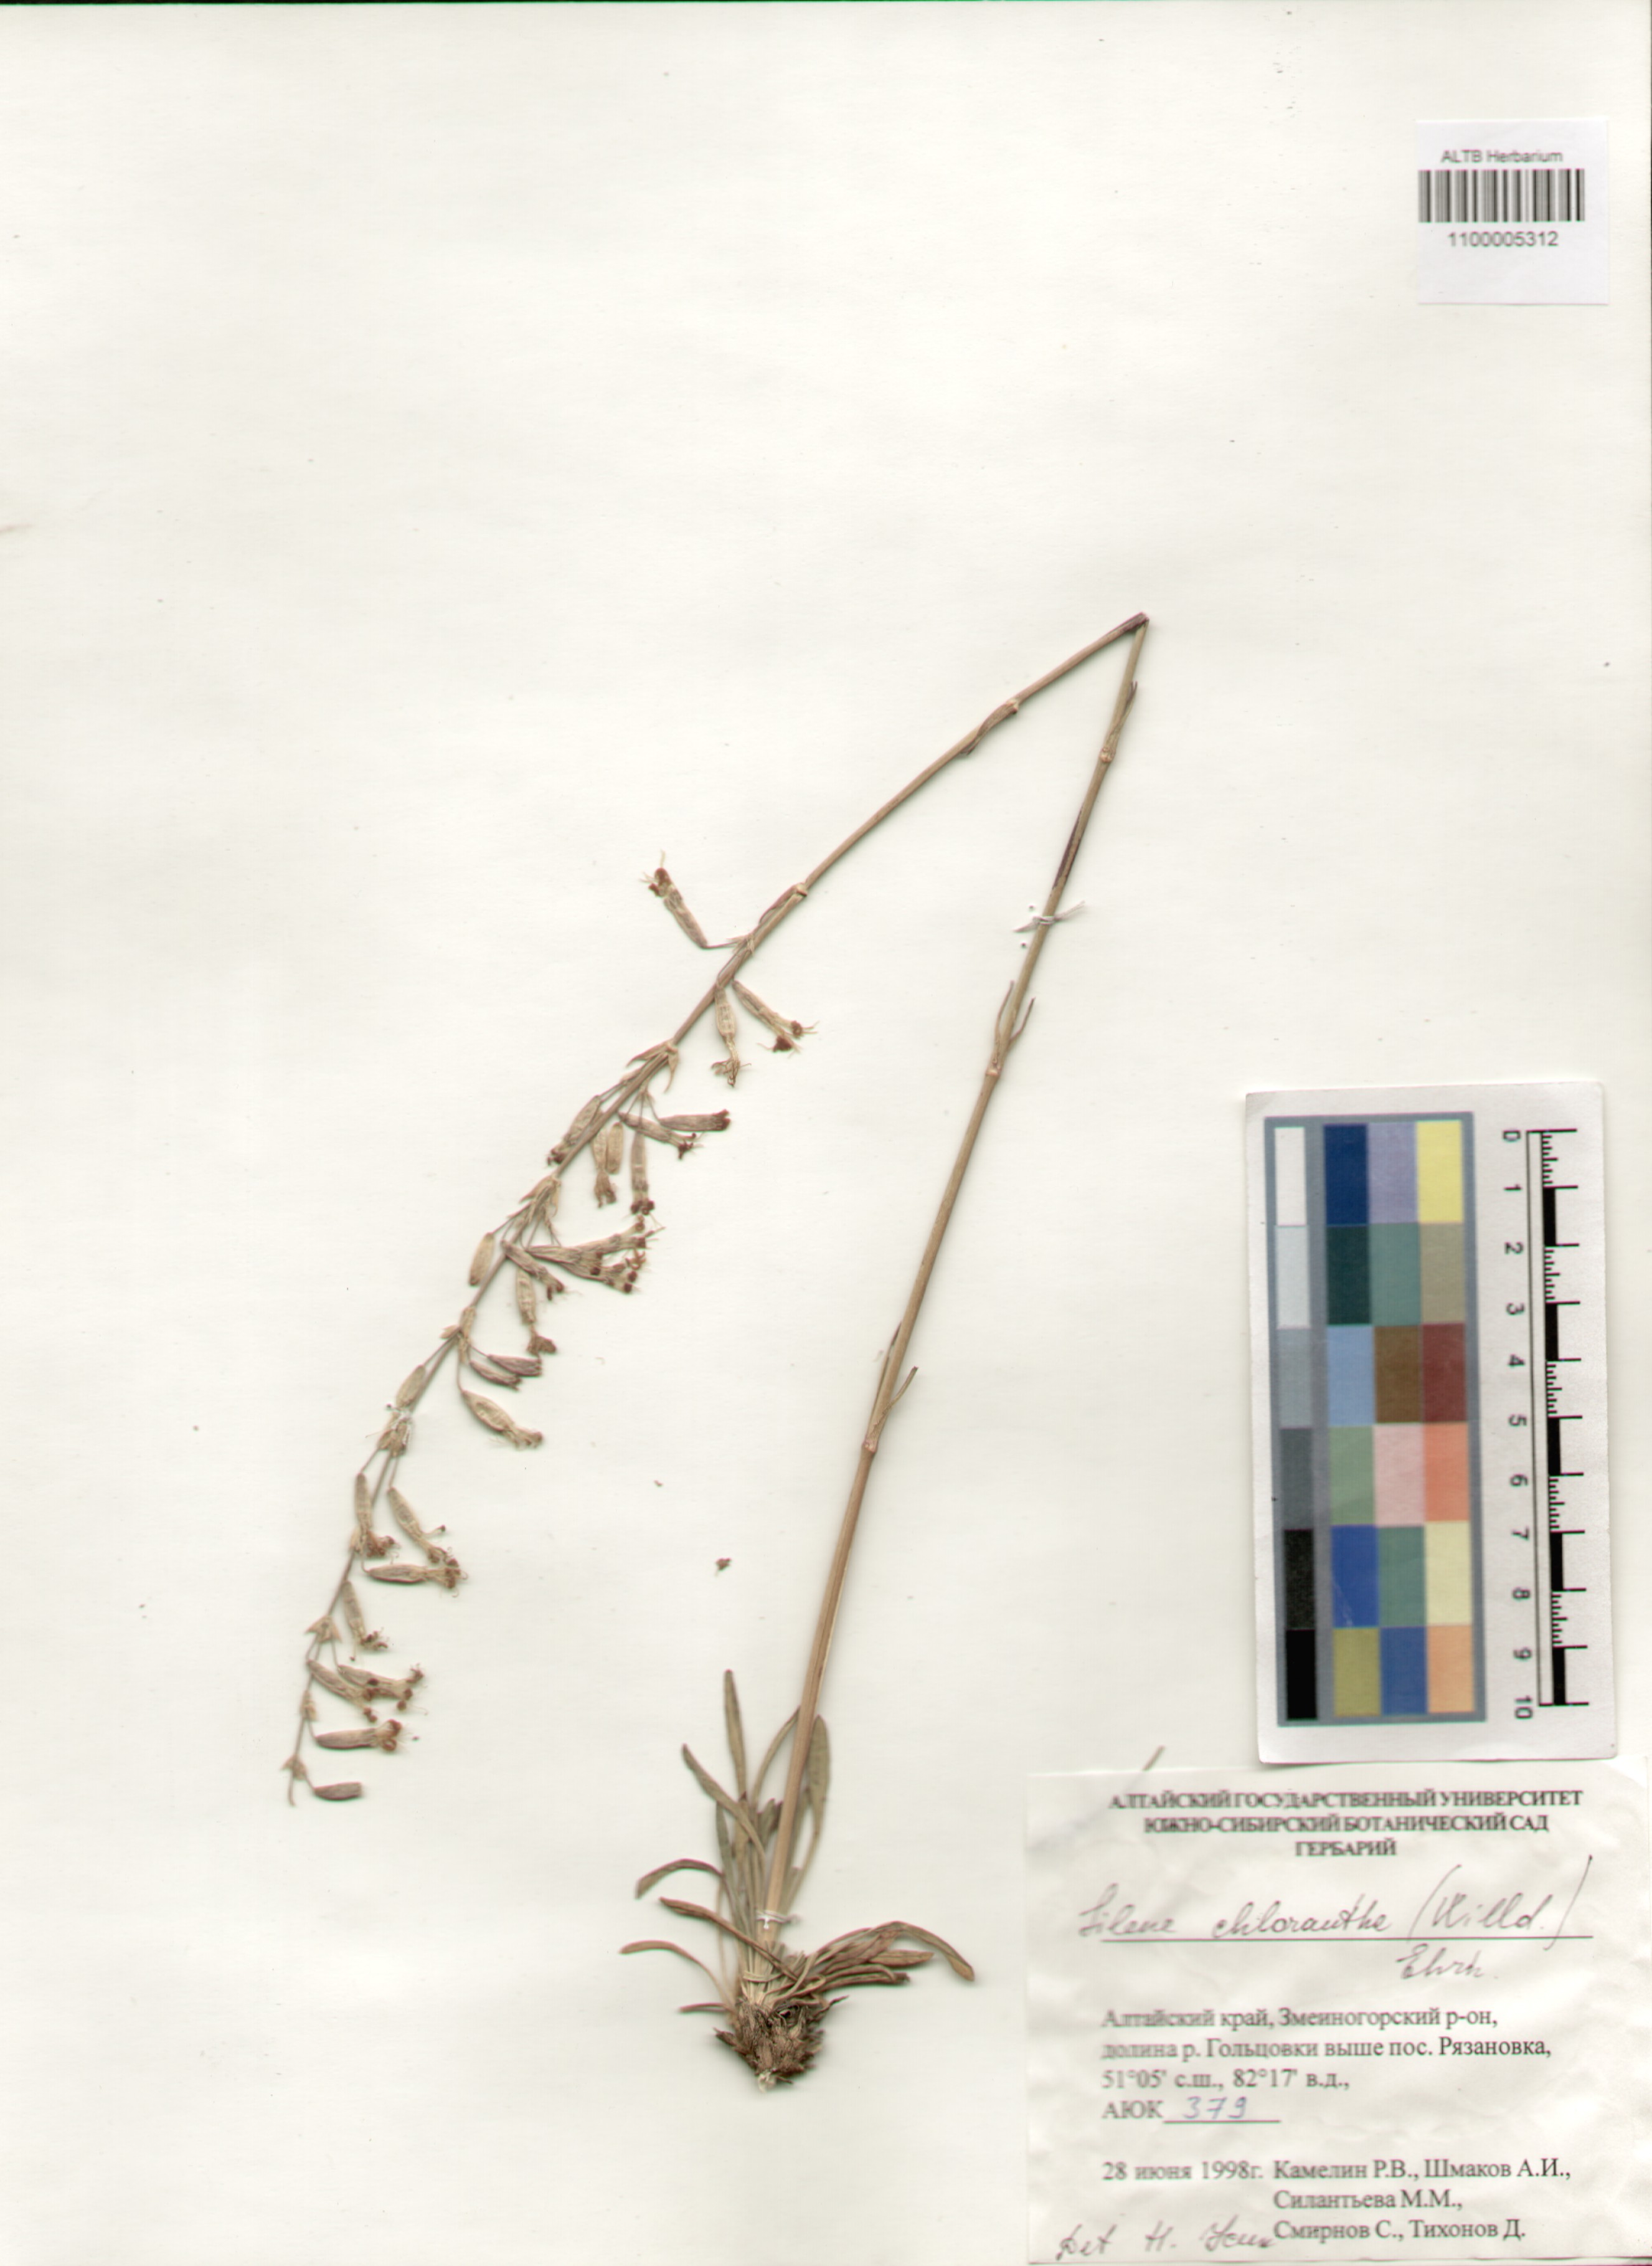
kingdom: Plantae
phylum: Tracheophyta
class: Magnoliopsida
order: Caryophyllales
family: Caryophyllaceae
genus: Silene
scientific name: Silene chlorantha
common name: Yellowgreen catchfly
